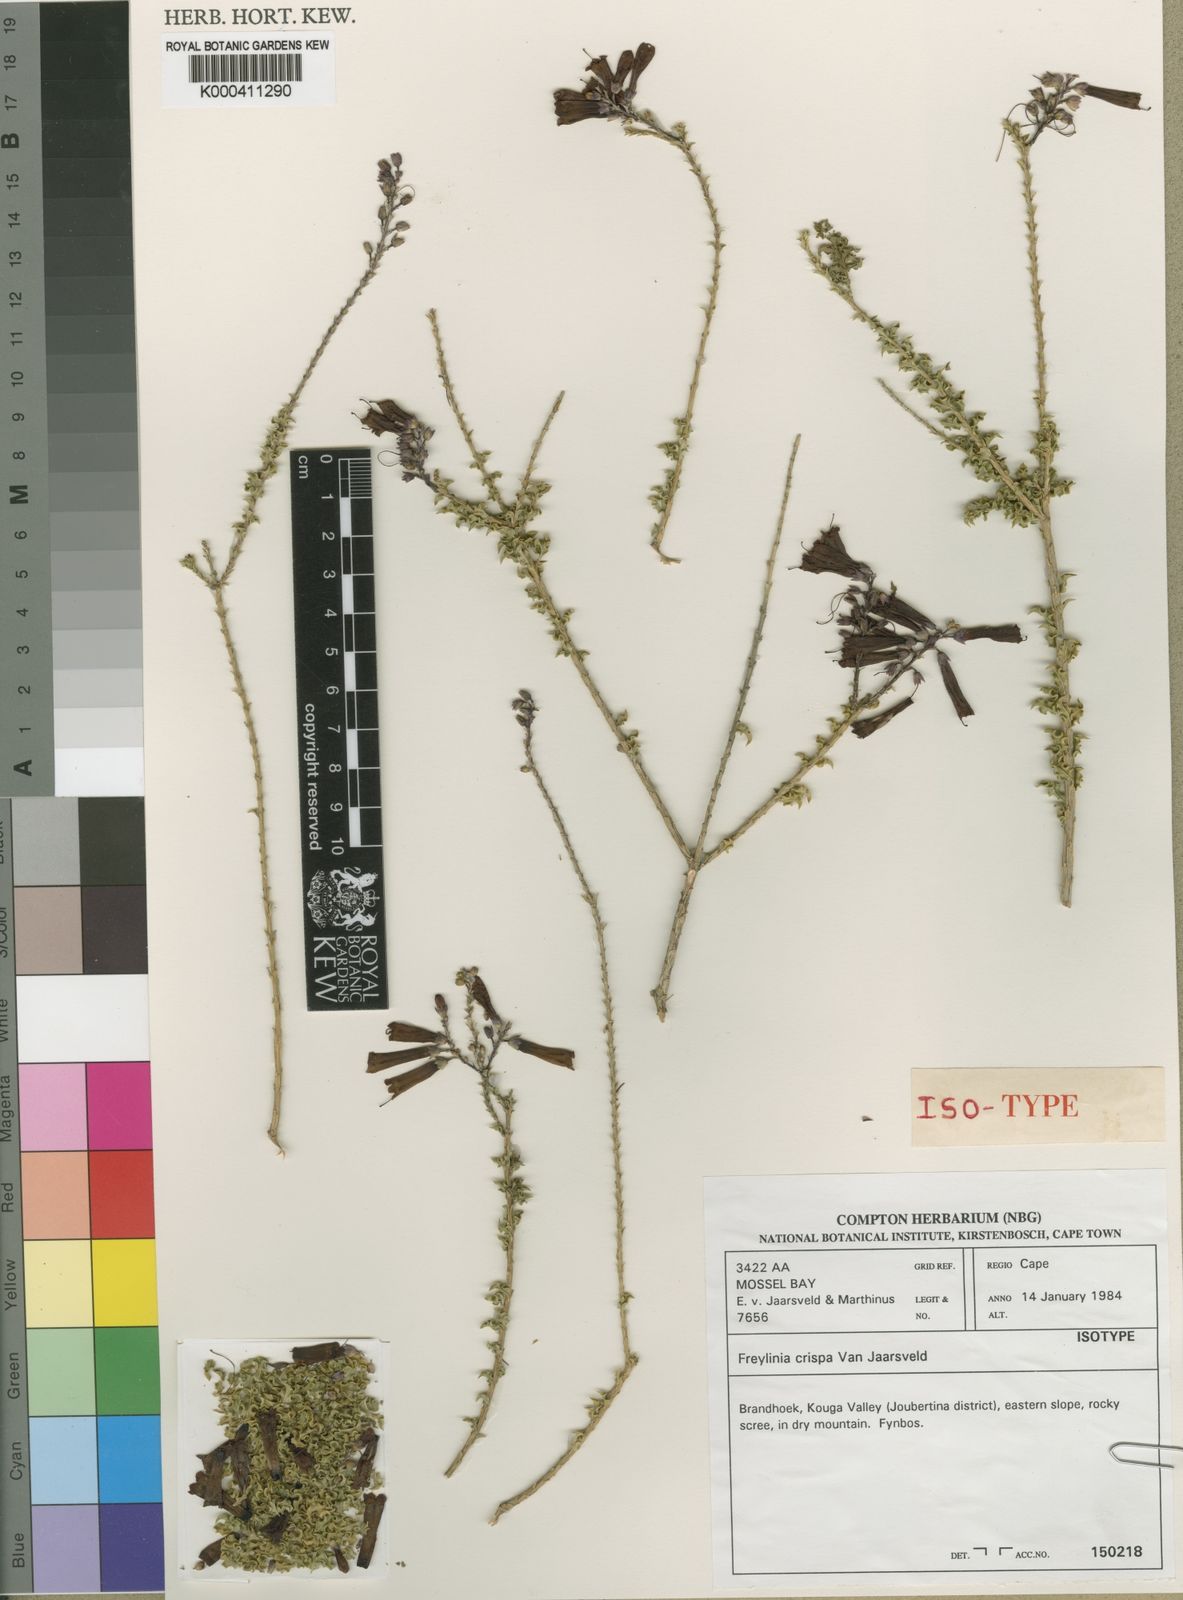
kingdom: Plantae
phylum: Tracheophyta
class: Magnoliopsida
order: Lamiales
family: Scrophulariaceae
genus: Freylinia
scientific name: Freylinia crispa
